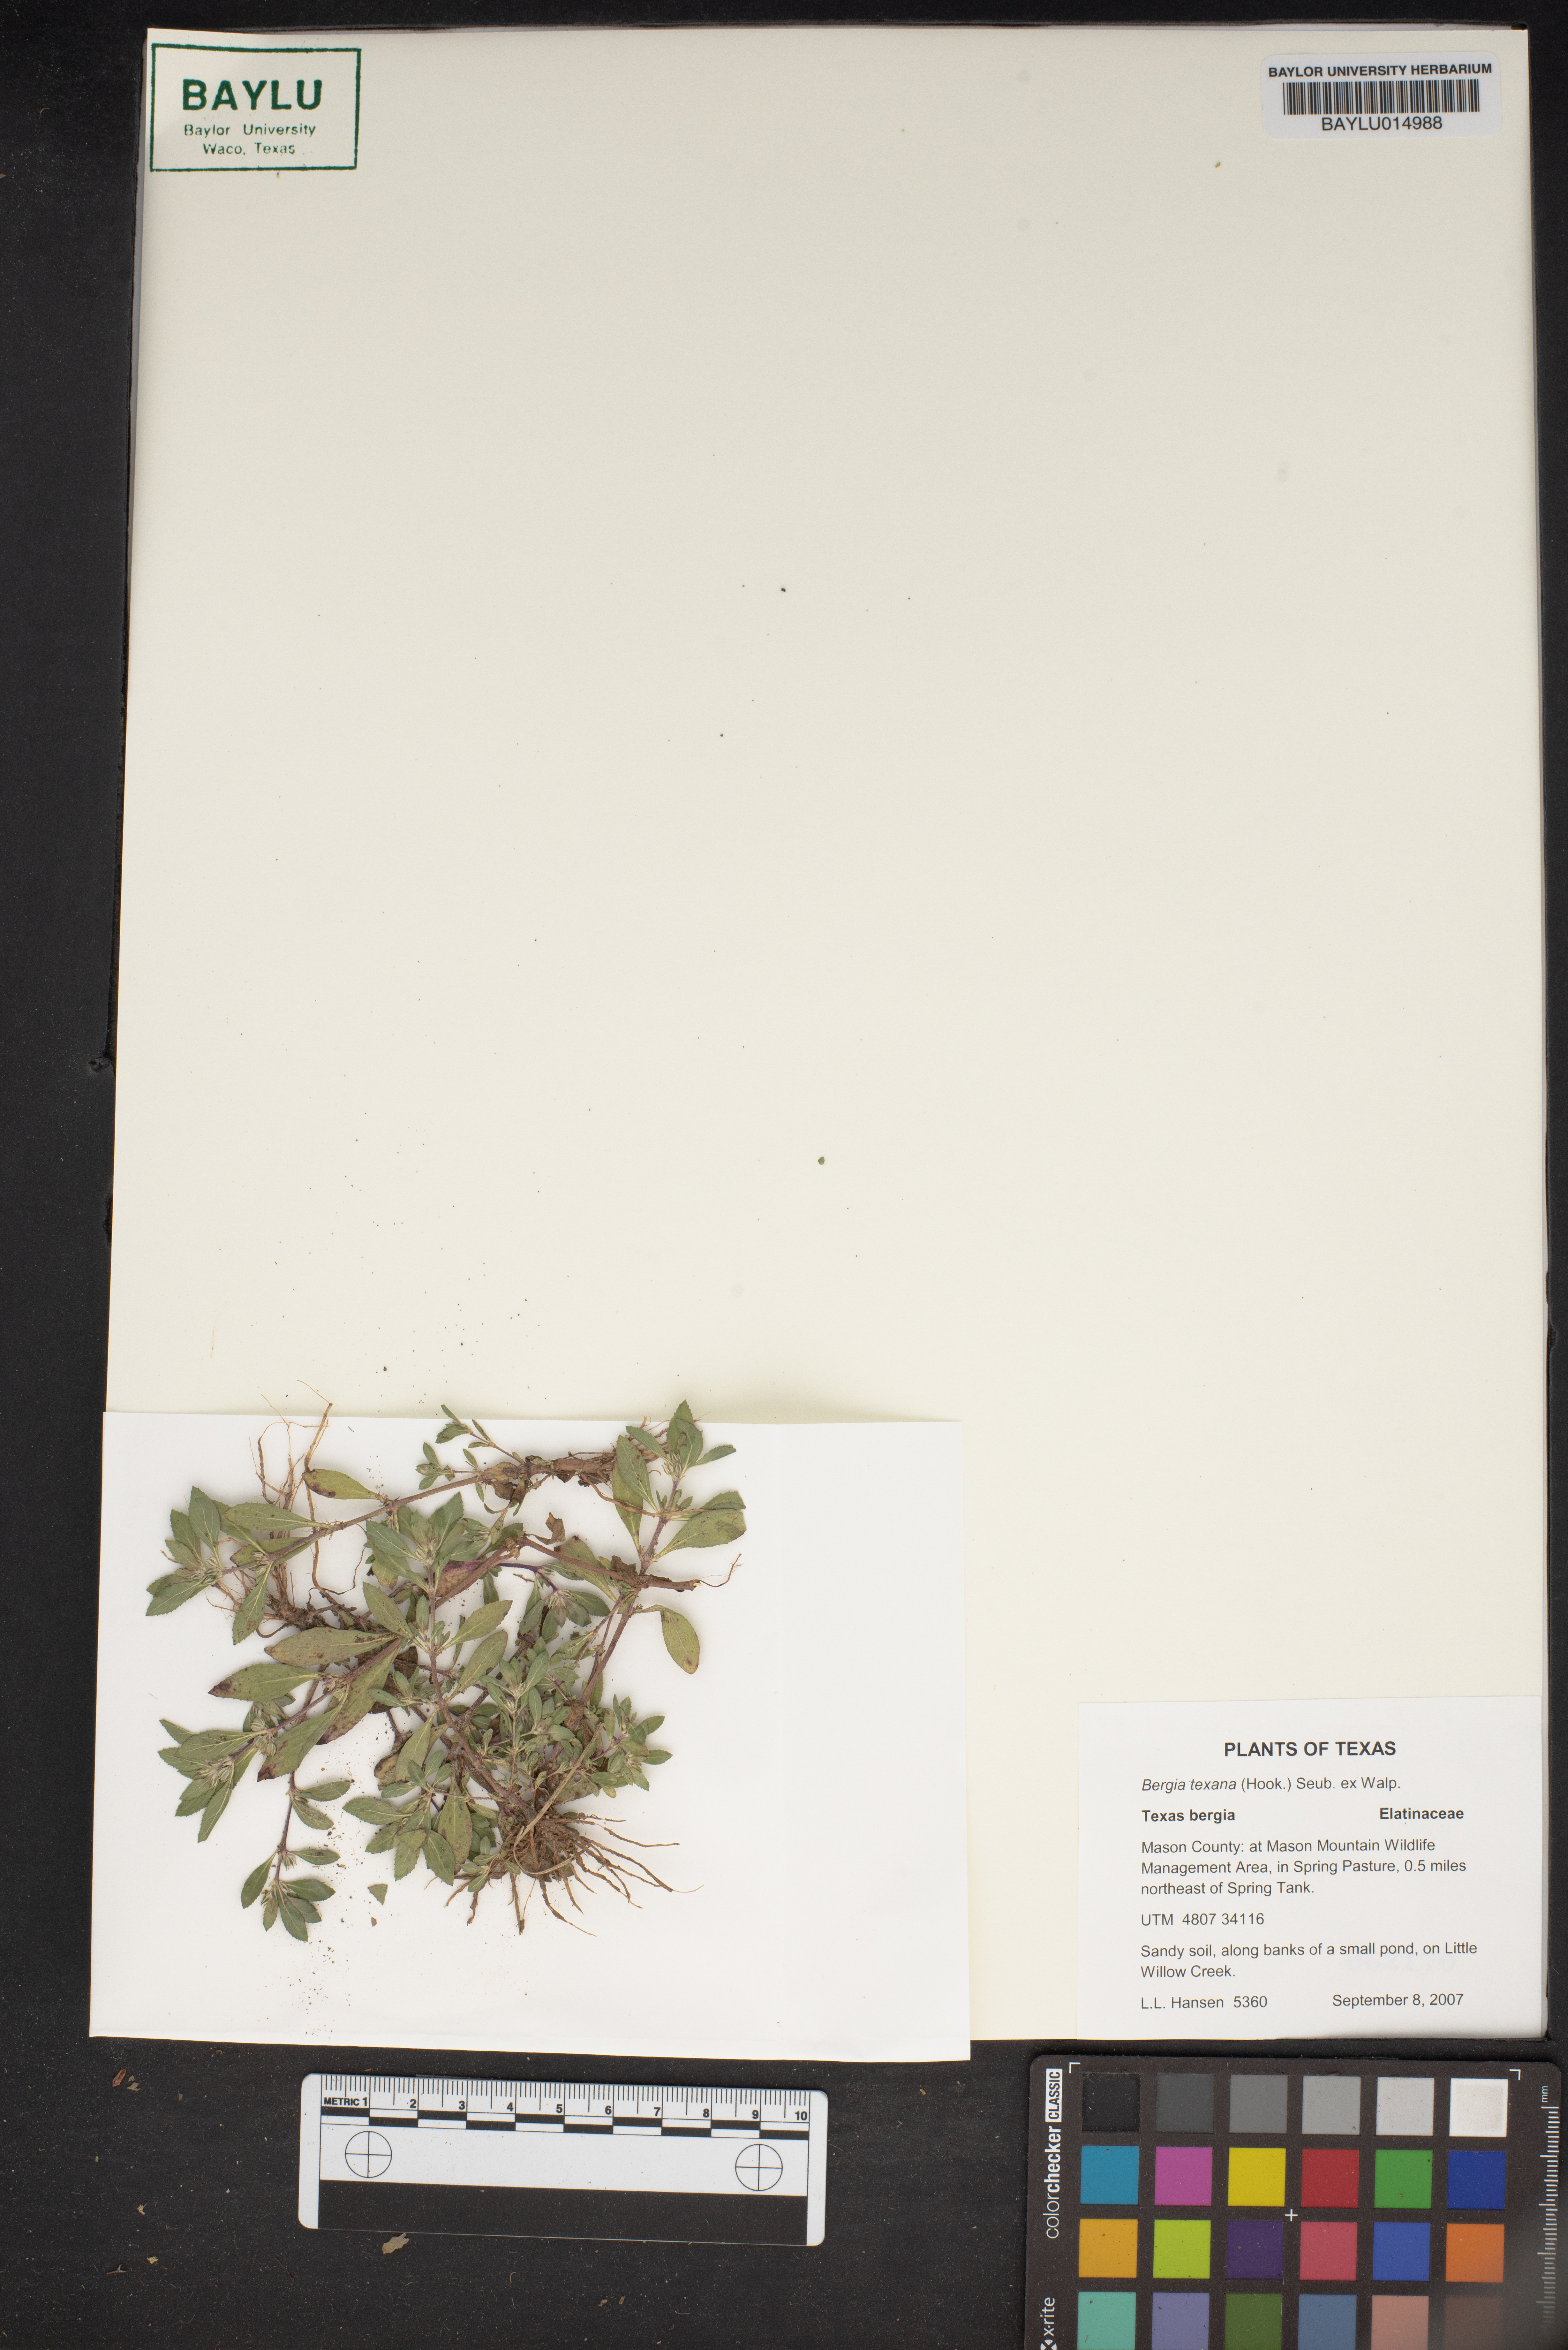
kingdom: Plantae
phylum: Tracheophyta
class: Magnoliopsida
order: Malpighiales
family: Elatinaceae
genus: Bergia
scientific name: Bergia texana
